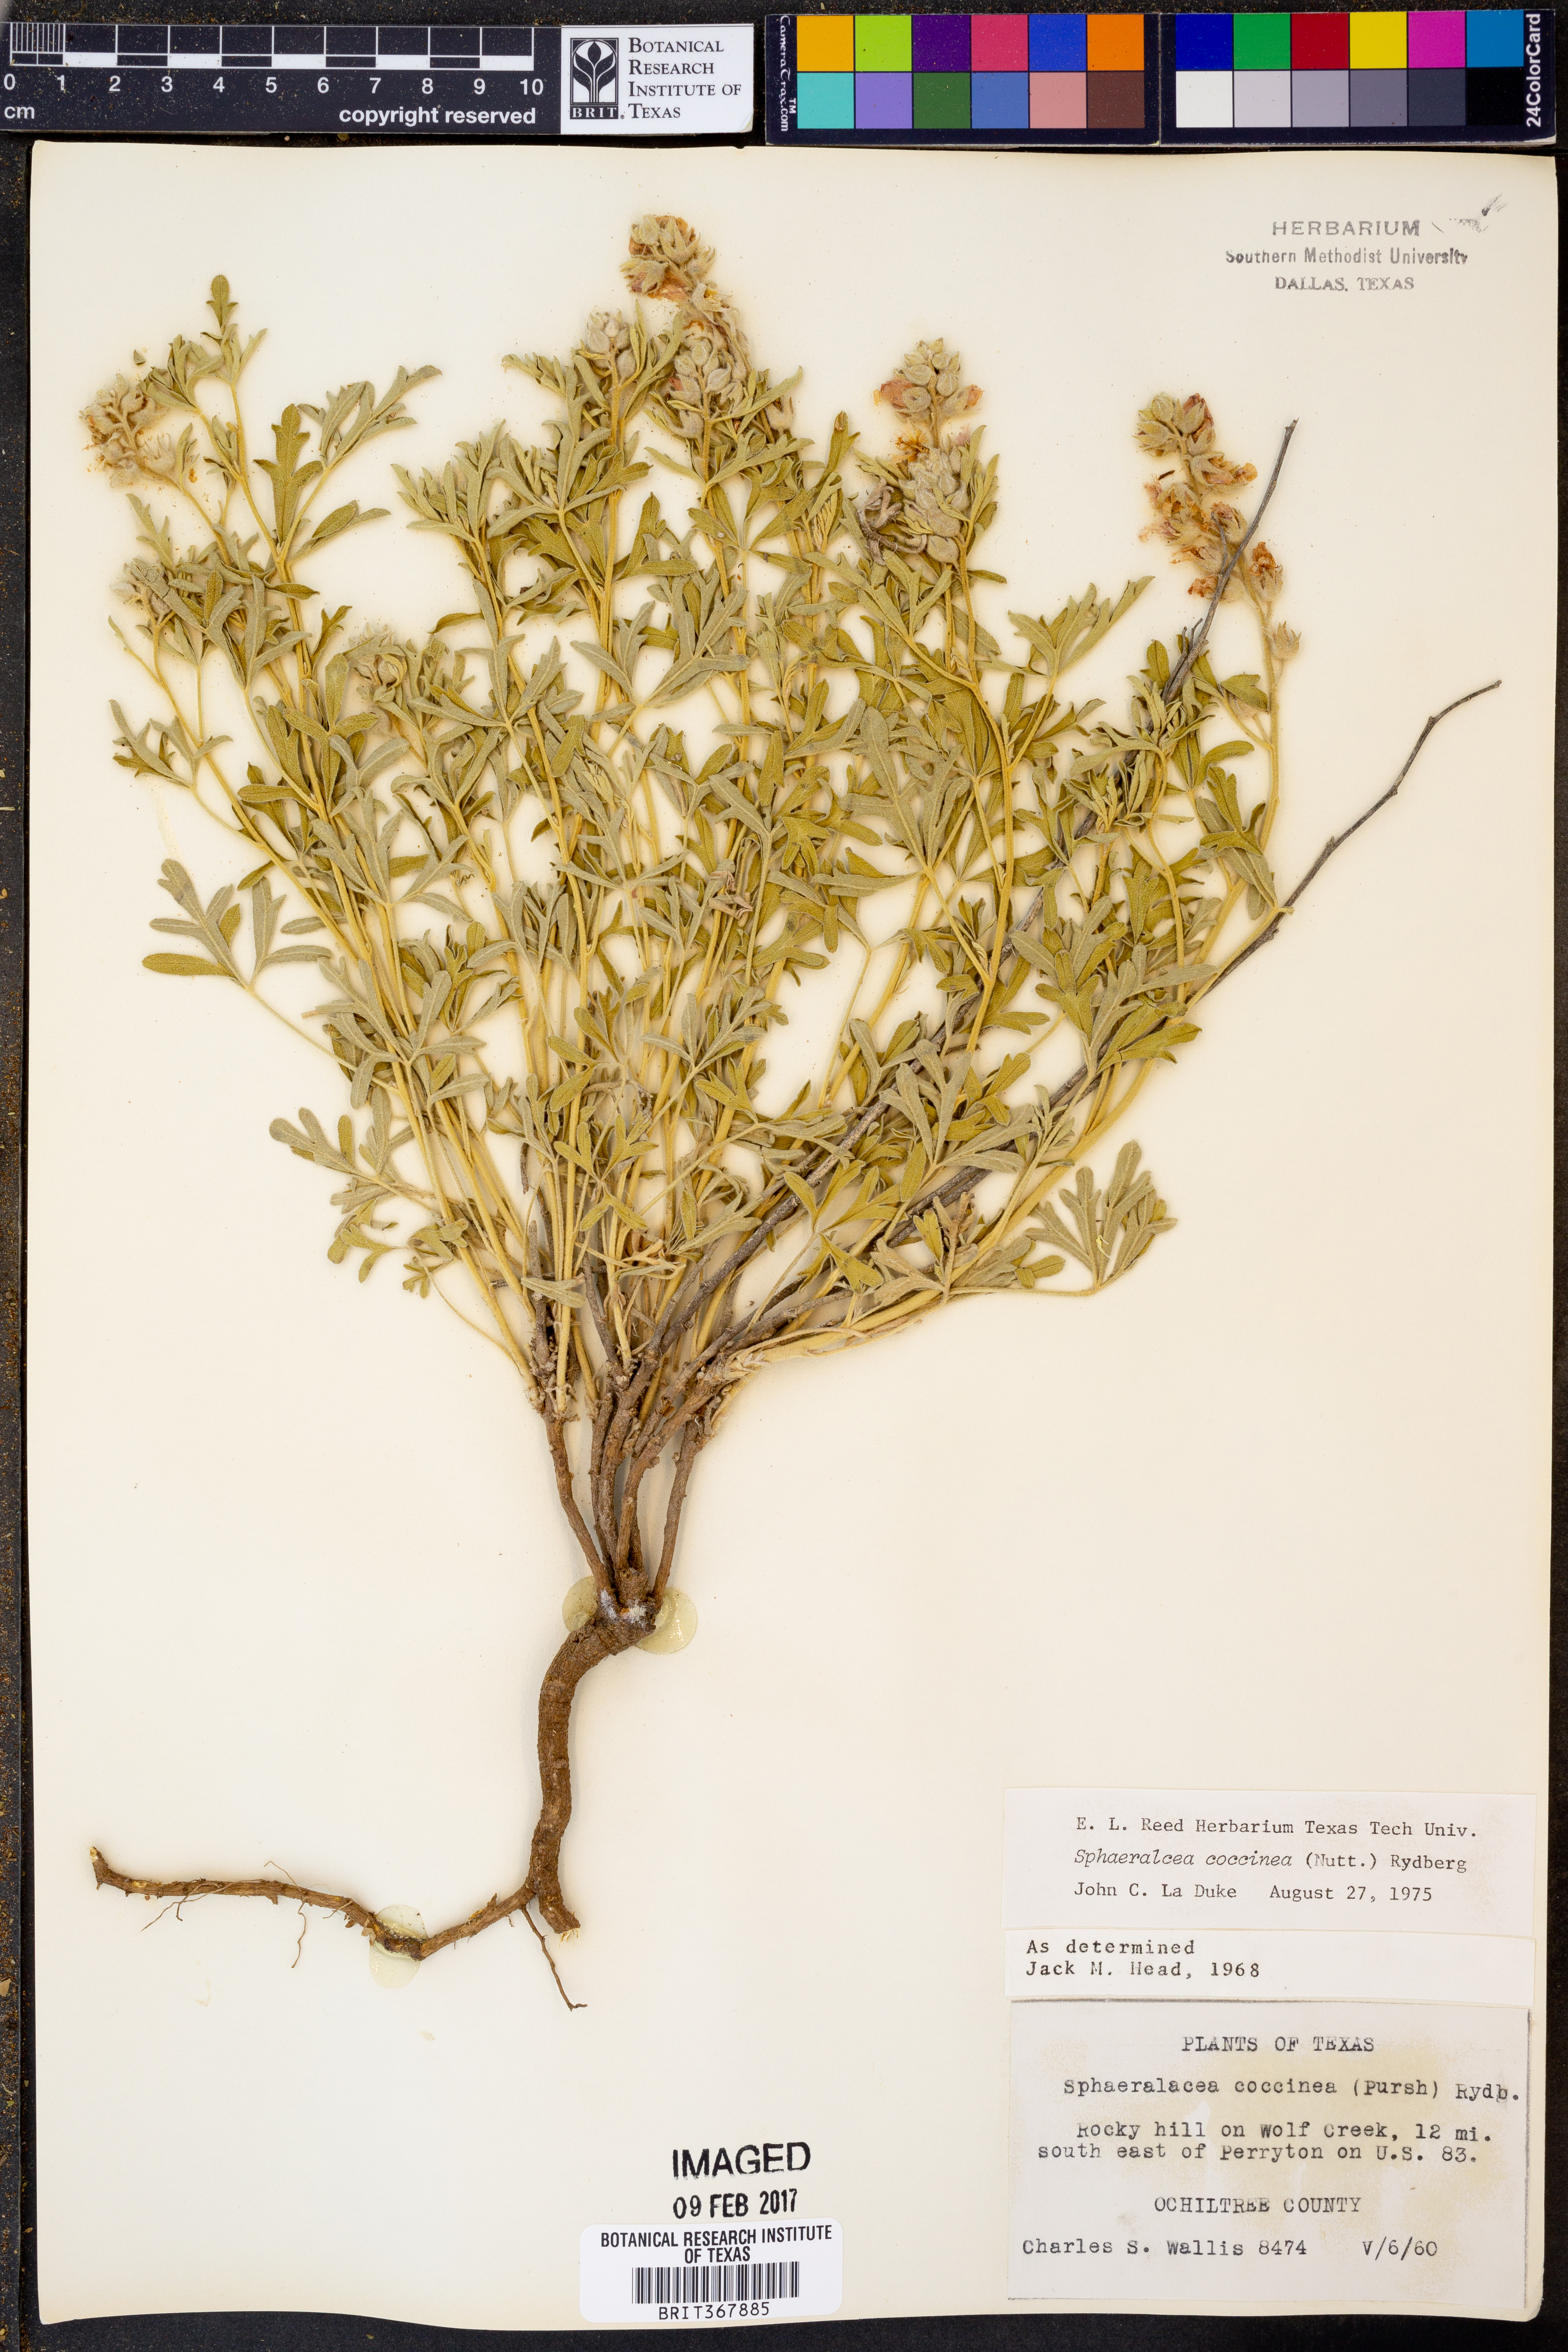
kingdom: Plantae
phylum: Tracheophyta
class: Magnoliopsida
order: Malvales
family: Malvaceae
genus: Sphaeralcea
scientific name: Sphaeralcea coccinea
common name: Moss-rose
